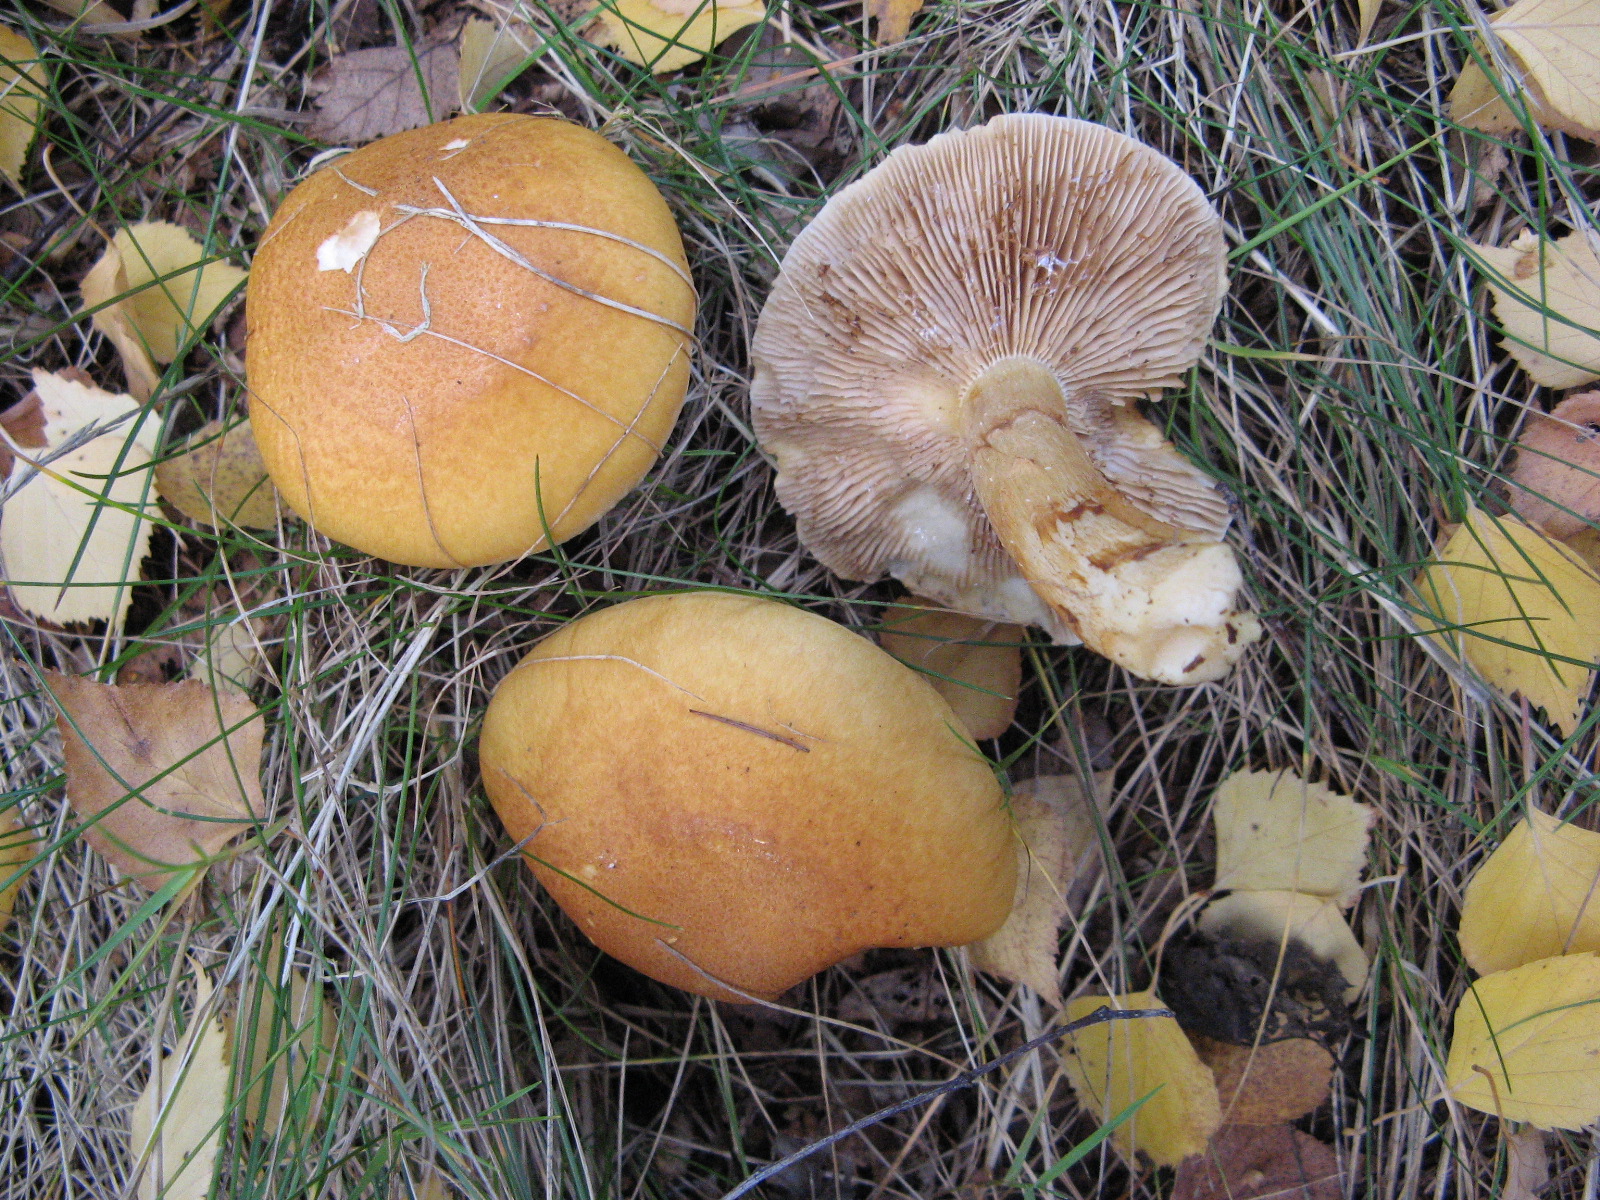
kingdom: Fungi
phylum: Basidiomycota
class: Agaricomycetes
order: Agaricales
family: Cortinariaceae
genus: Phlegmacium
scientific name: Phlegmacium triumphans
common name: gulbæltet slørhat
